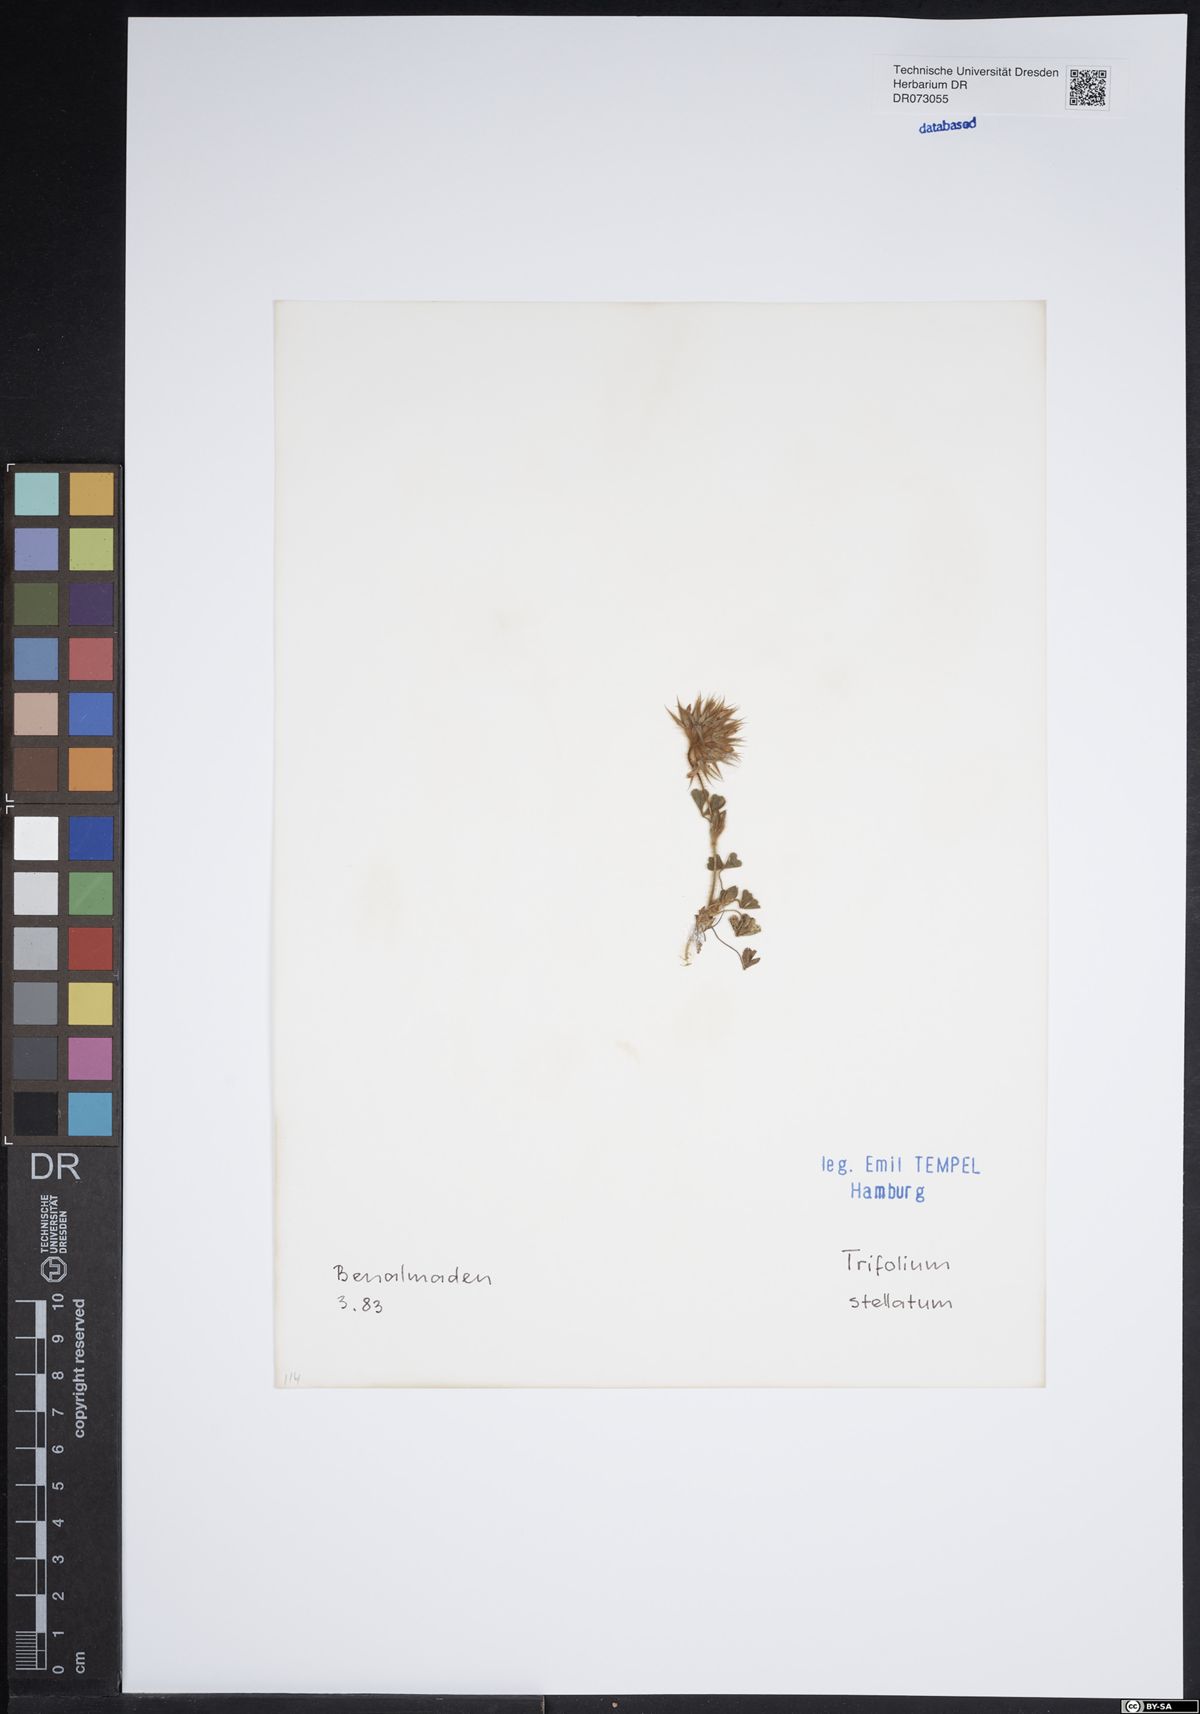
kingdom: Plantae
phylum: Tracheophyta
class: Magnoliopsida
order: Fabales
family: Fabaceae
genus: Trifolium
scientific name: Trifolium stellatum
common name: Starry clover
